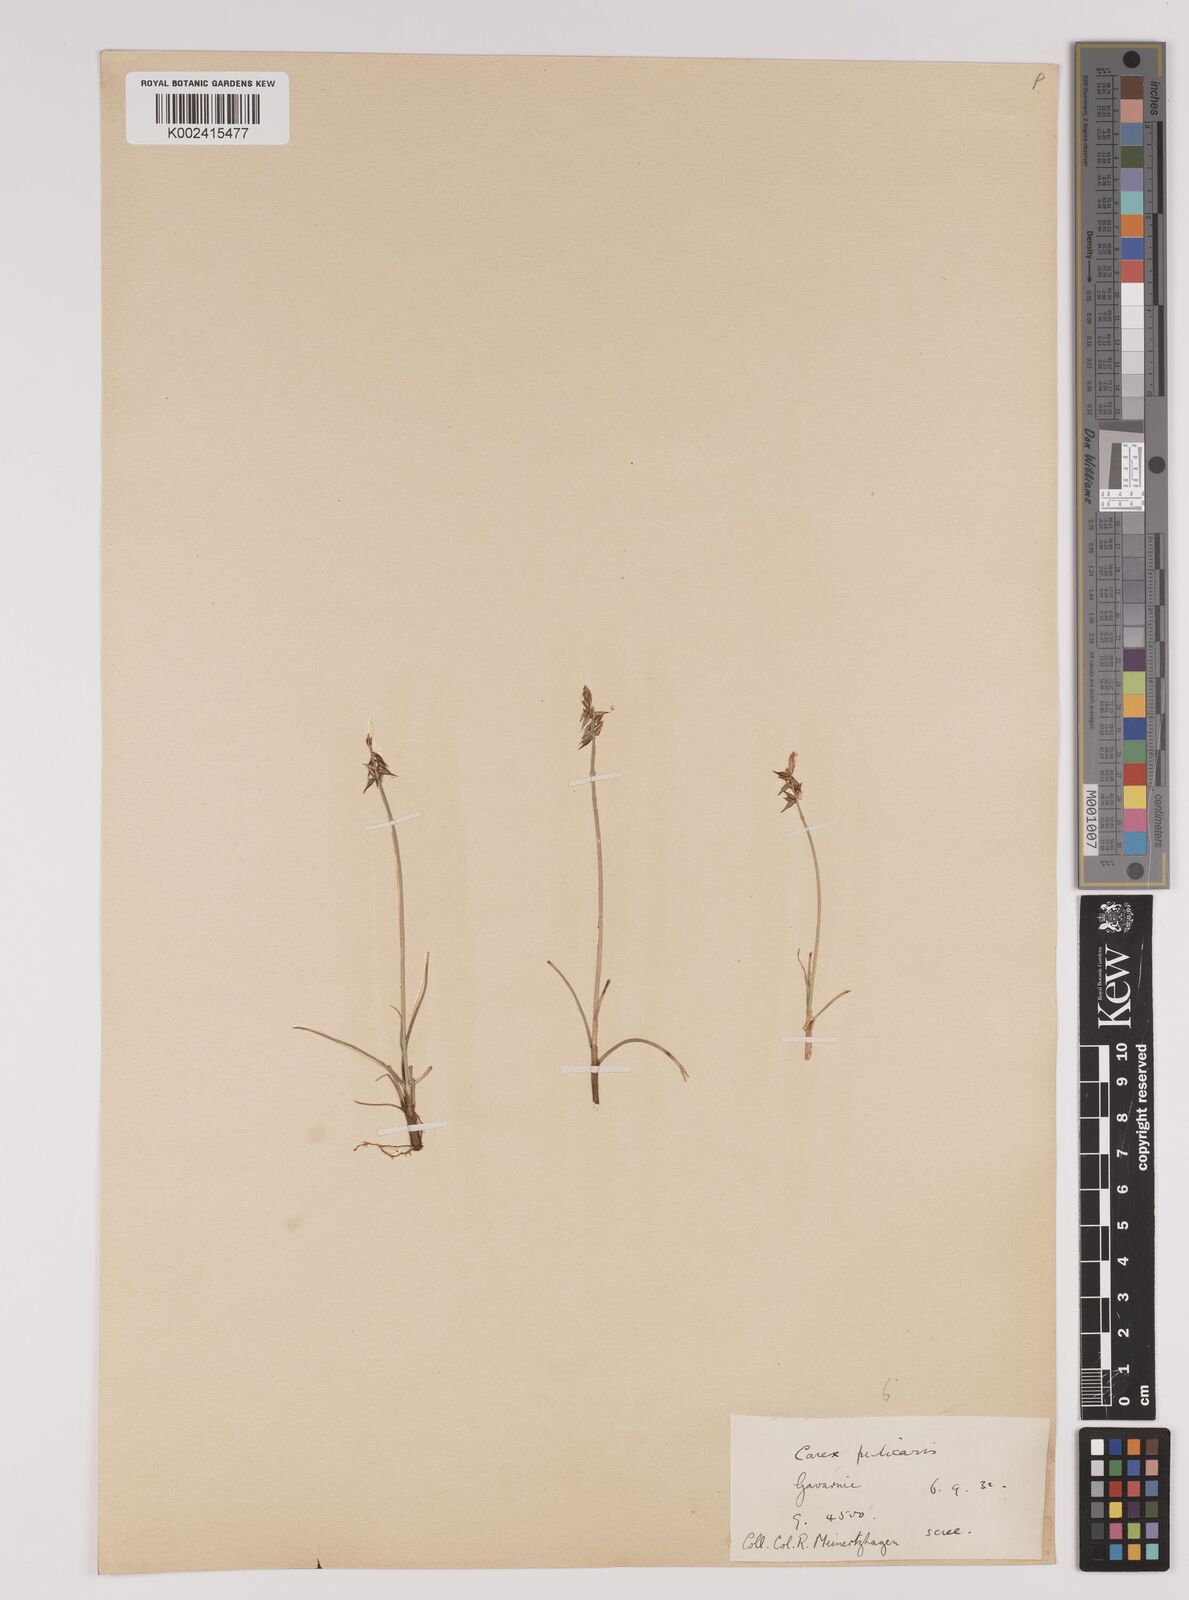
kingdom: Plantae
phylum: Tracheophyta
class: Liliopsida
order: Poales
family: Cyperaceae
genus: Carex
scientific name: Carex pulicaris
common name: Flea sedge
